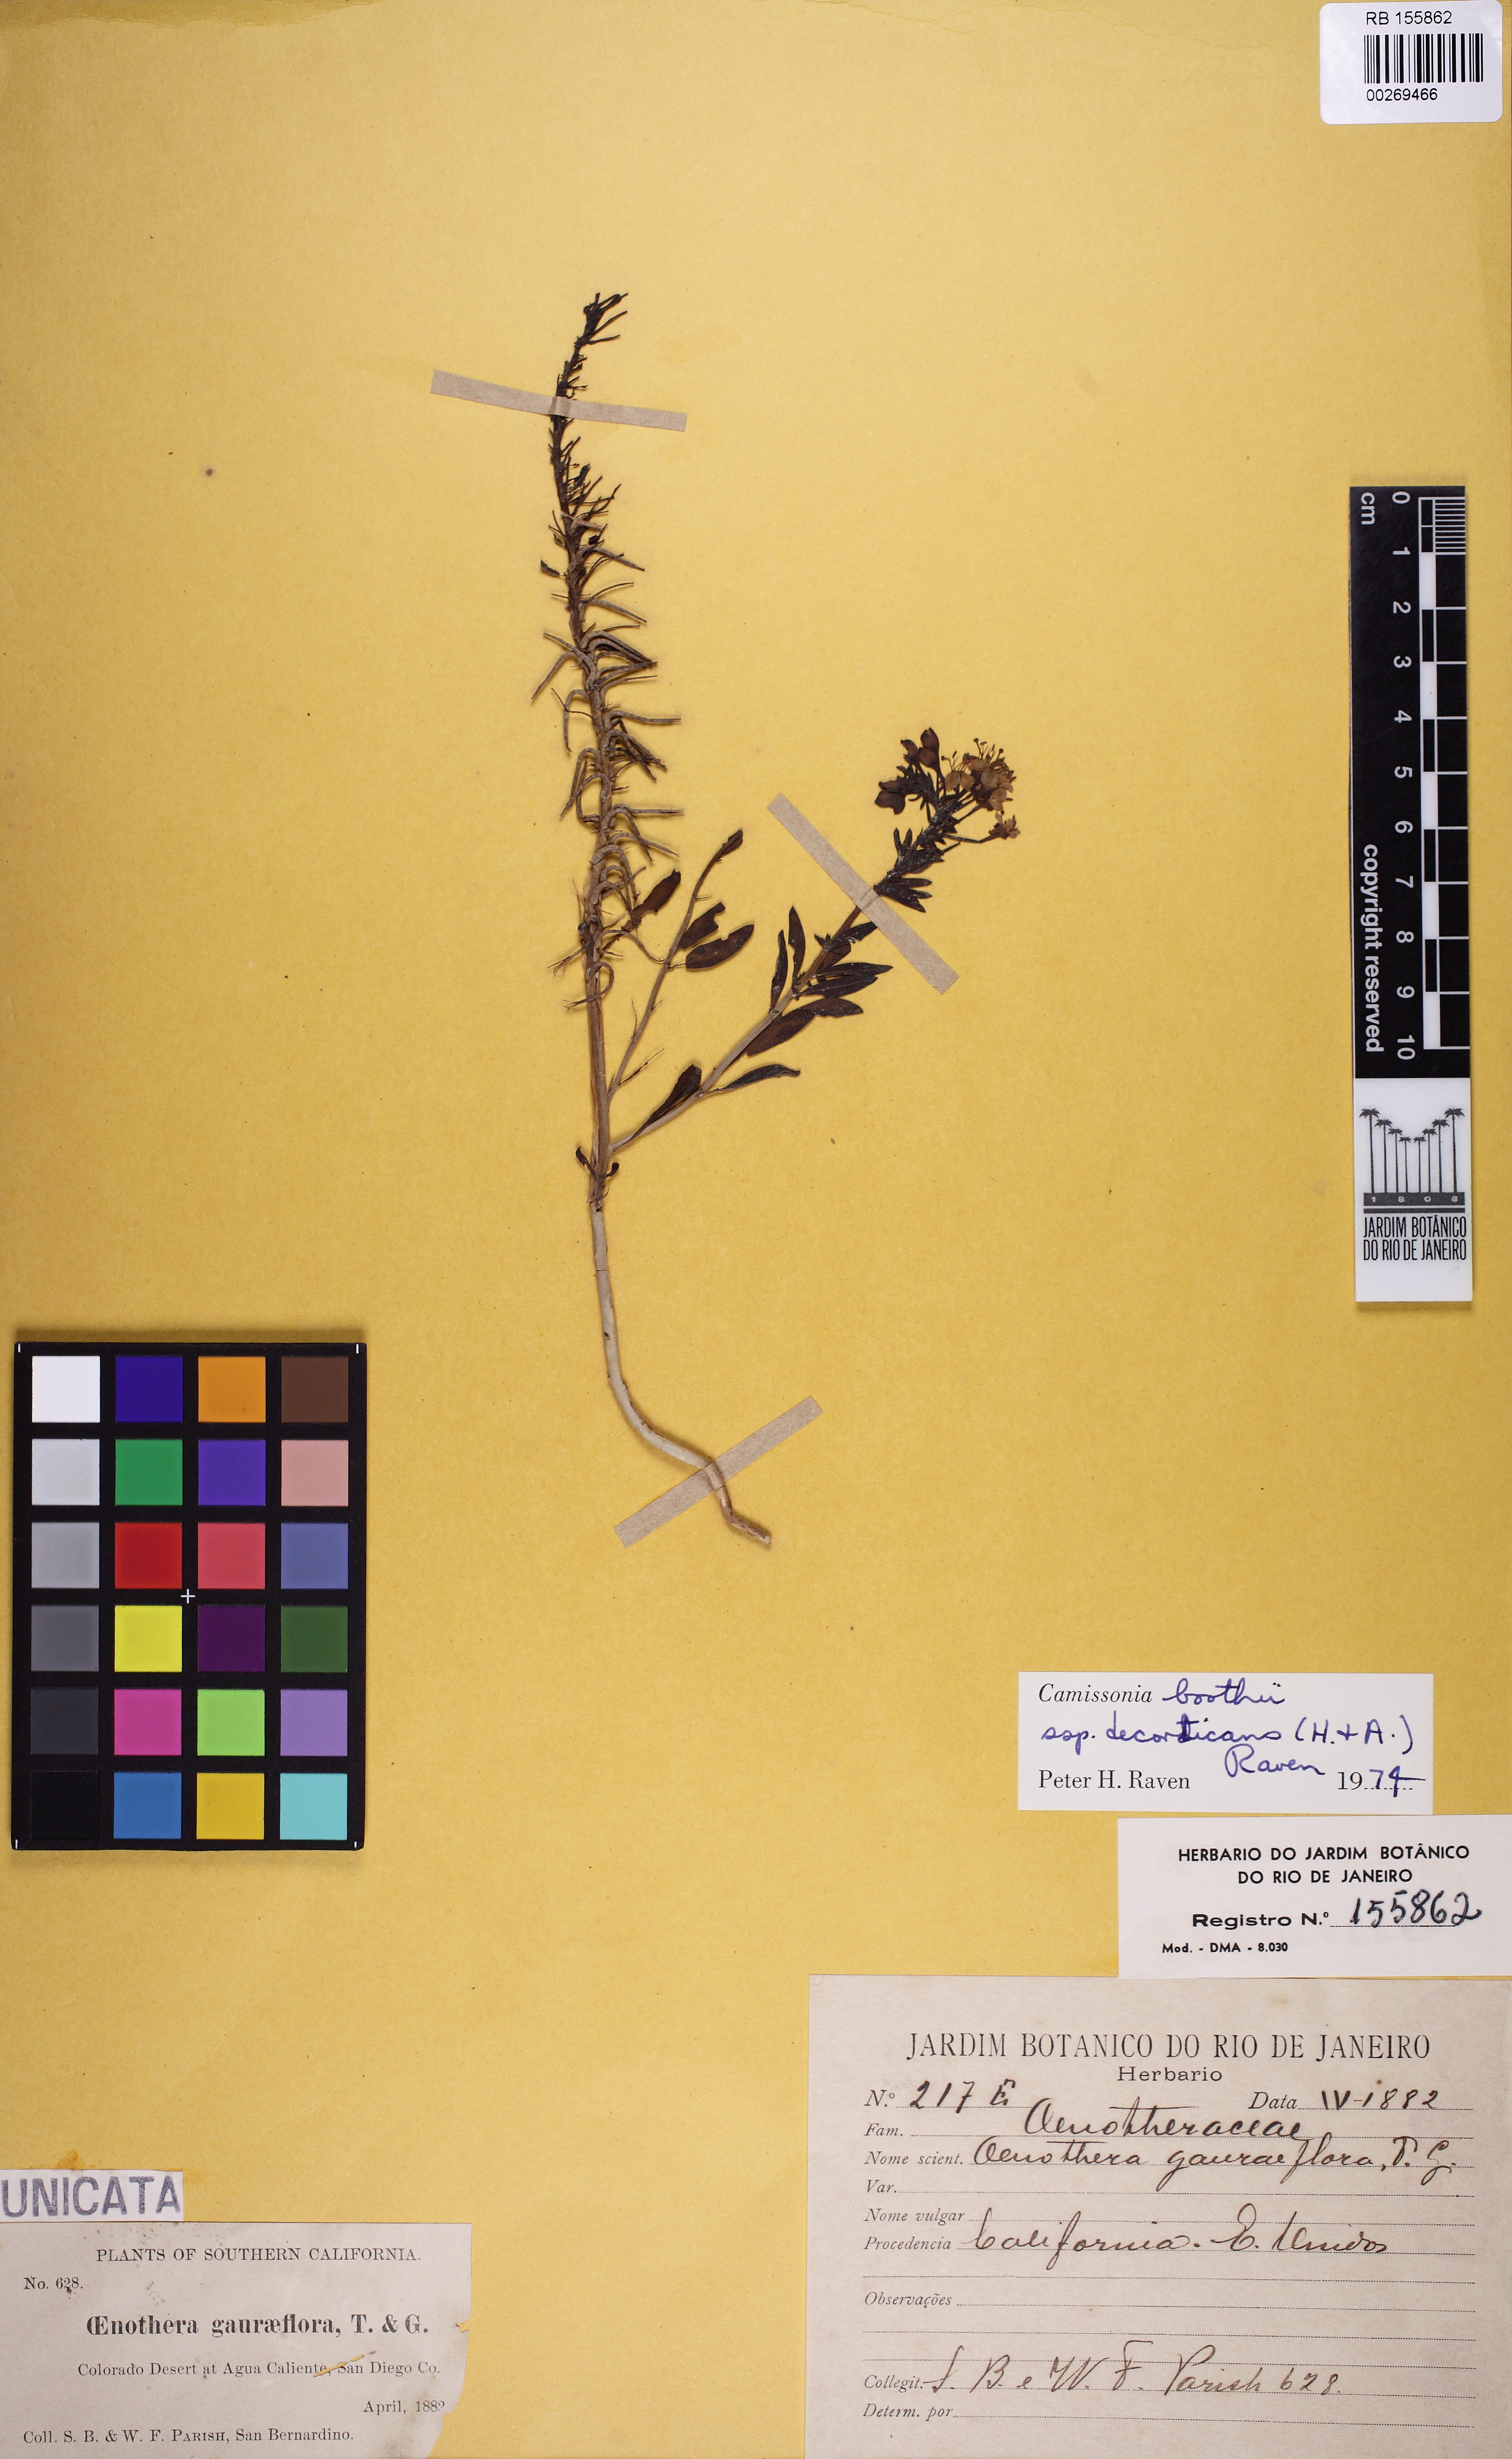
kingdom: Plantae
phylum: Tracheophyta
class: Magnoliopsida
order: Myrtales
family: Onagraceae
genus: Eremothera
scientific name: Eremothera boothii
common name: Booth's evening primrose
